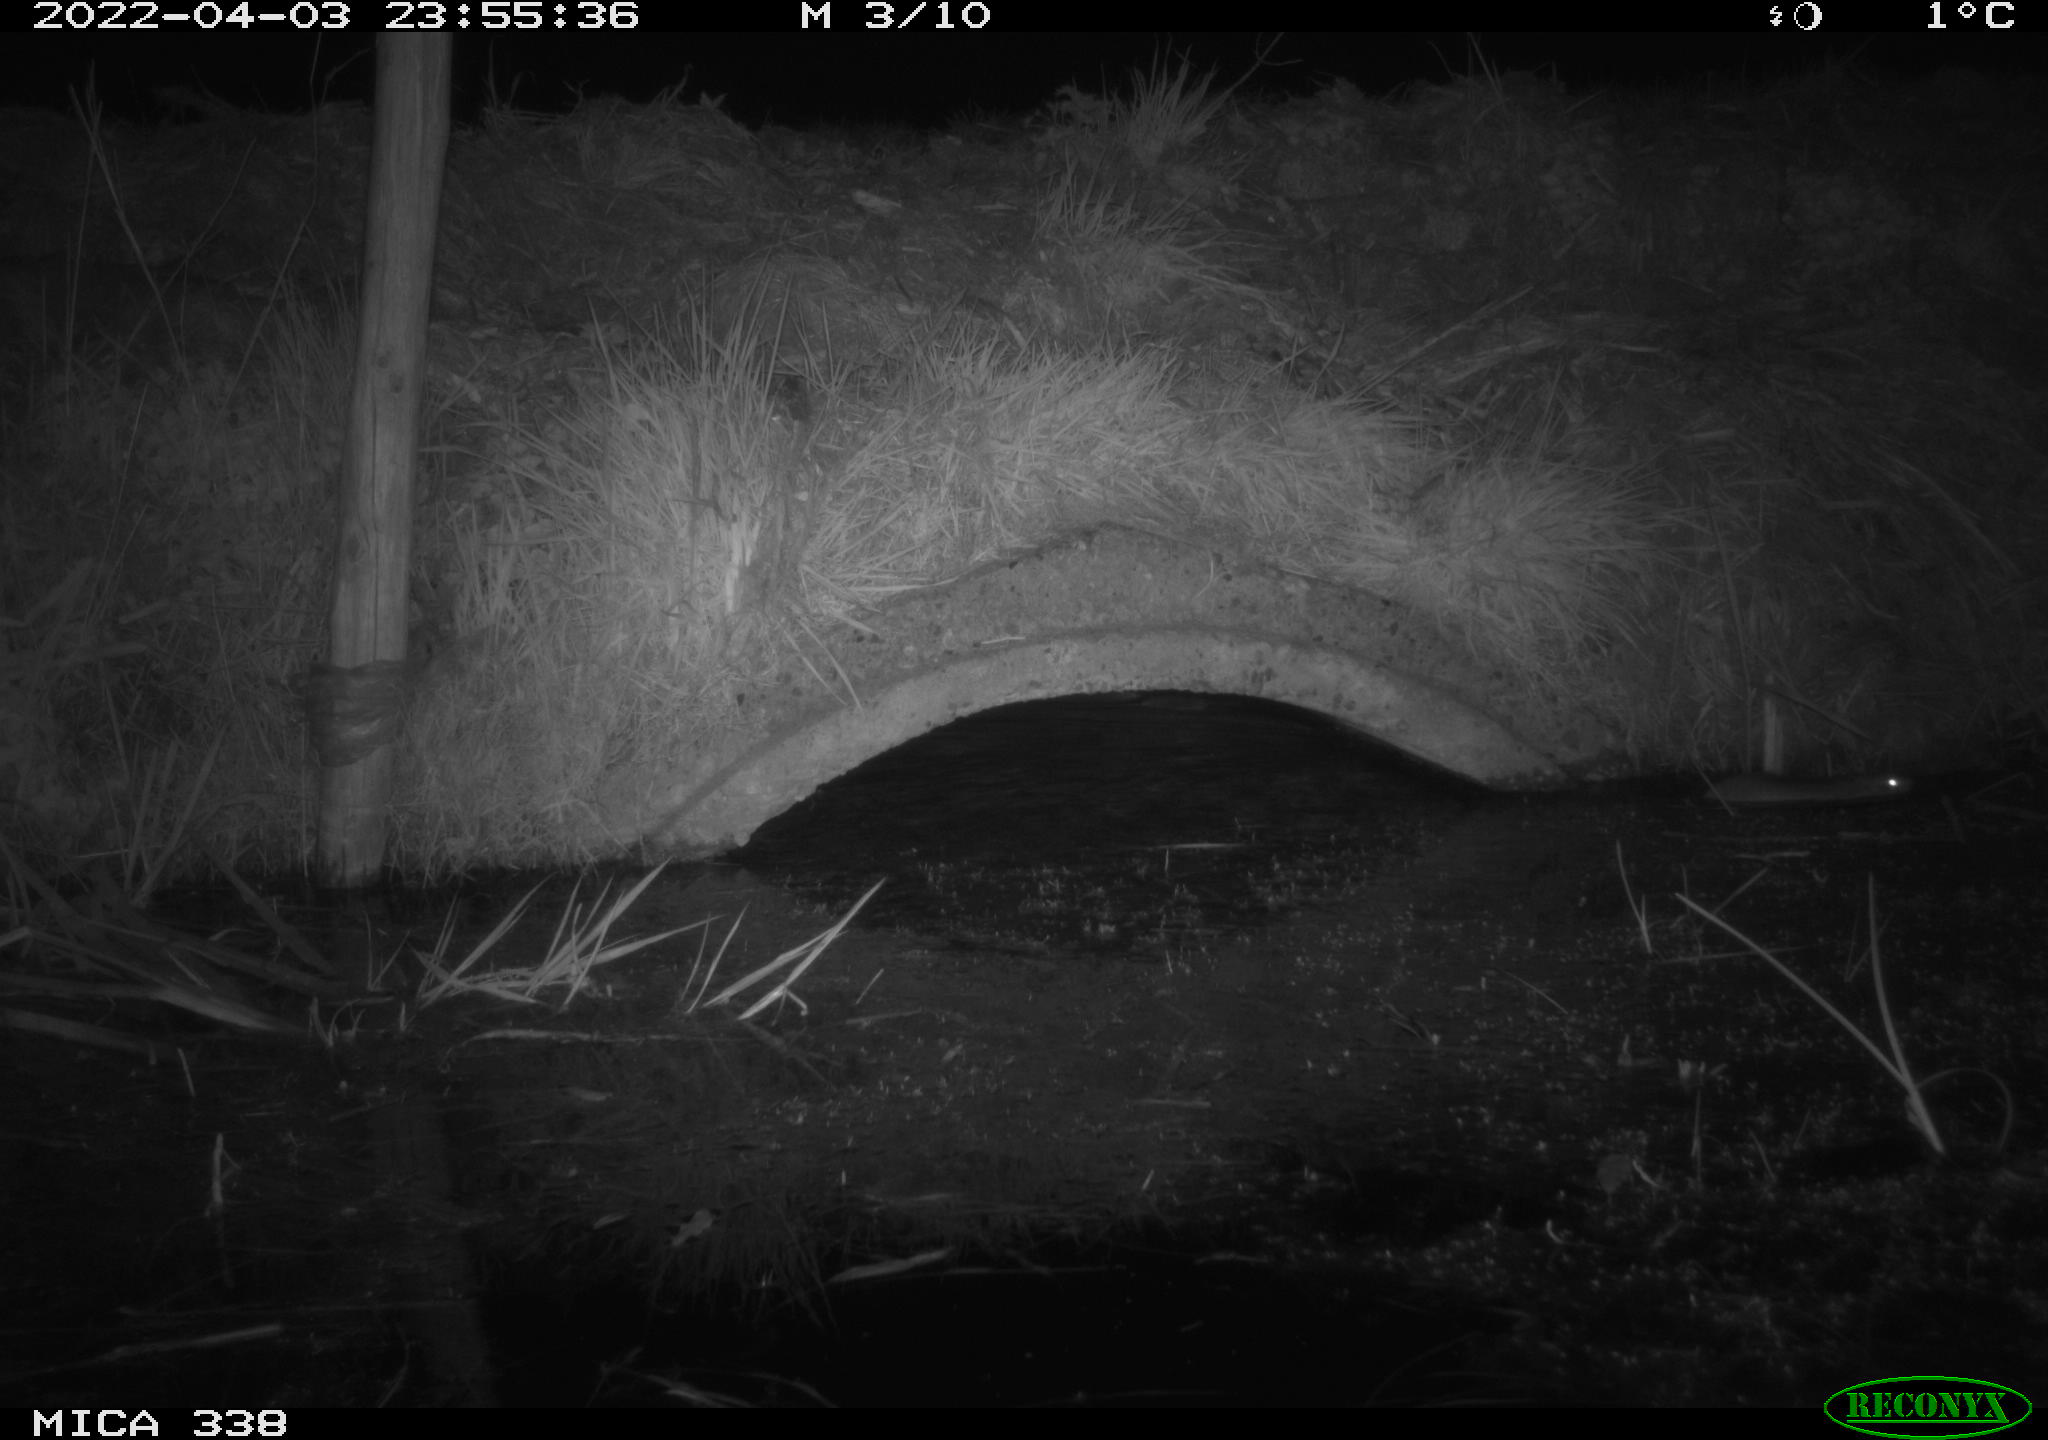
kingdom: Animalia
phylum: Chordata
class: Mammalia
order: Rodentia
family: Muridae
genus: Rattus
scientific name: Rattus norvegicus
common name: Brown rat
